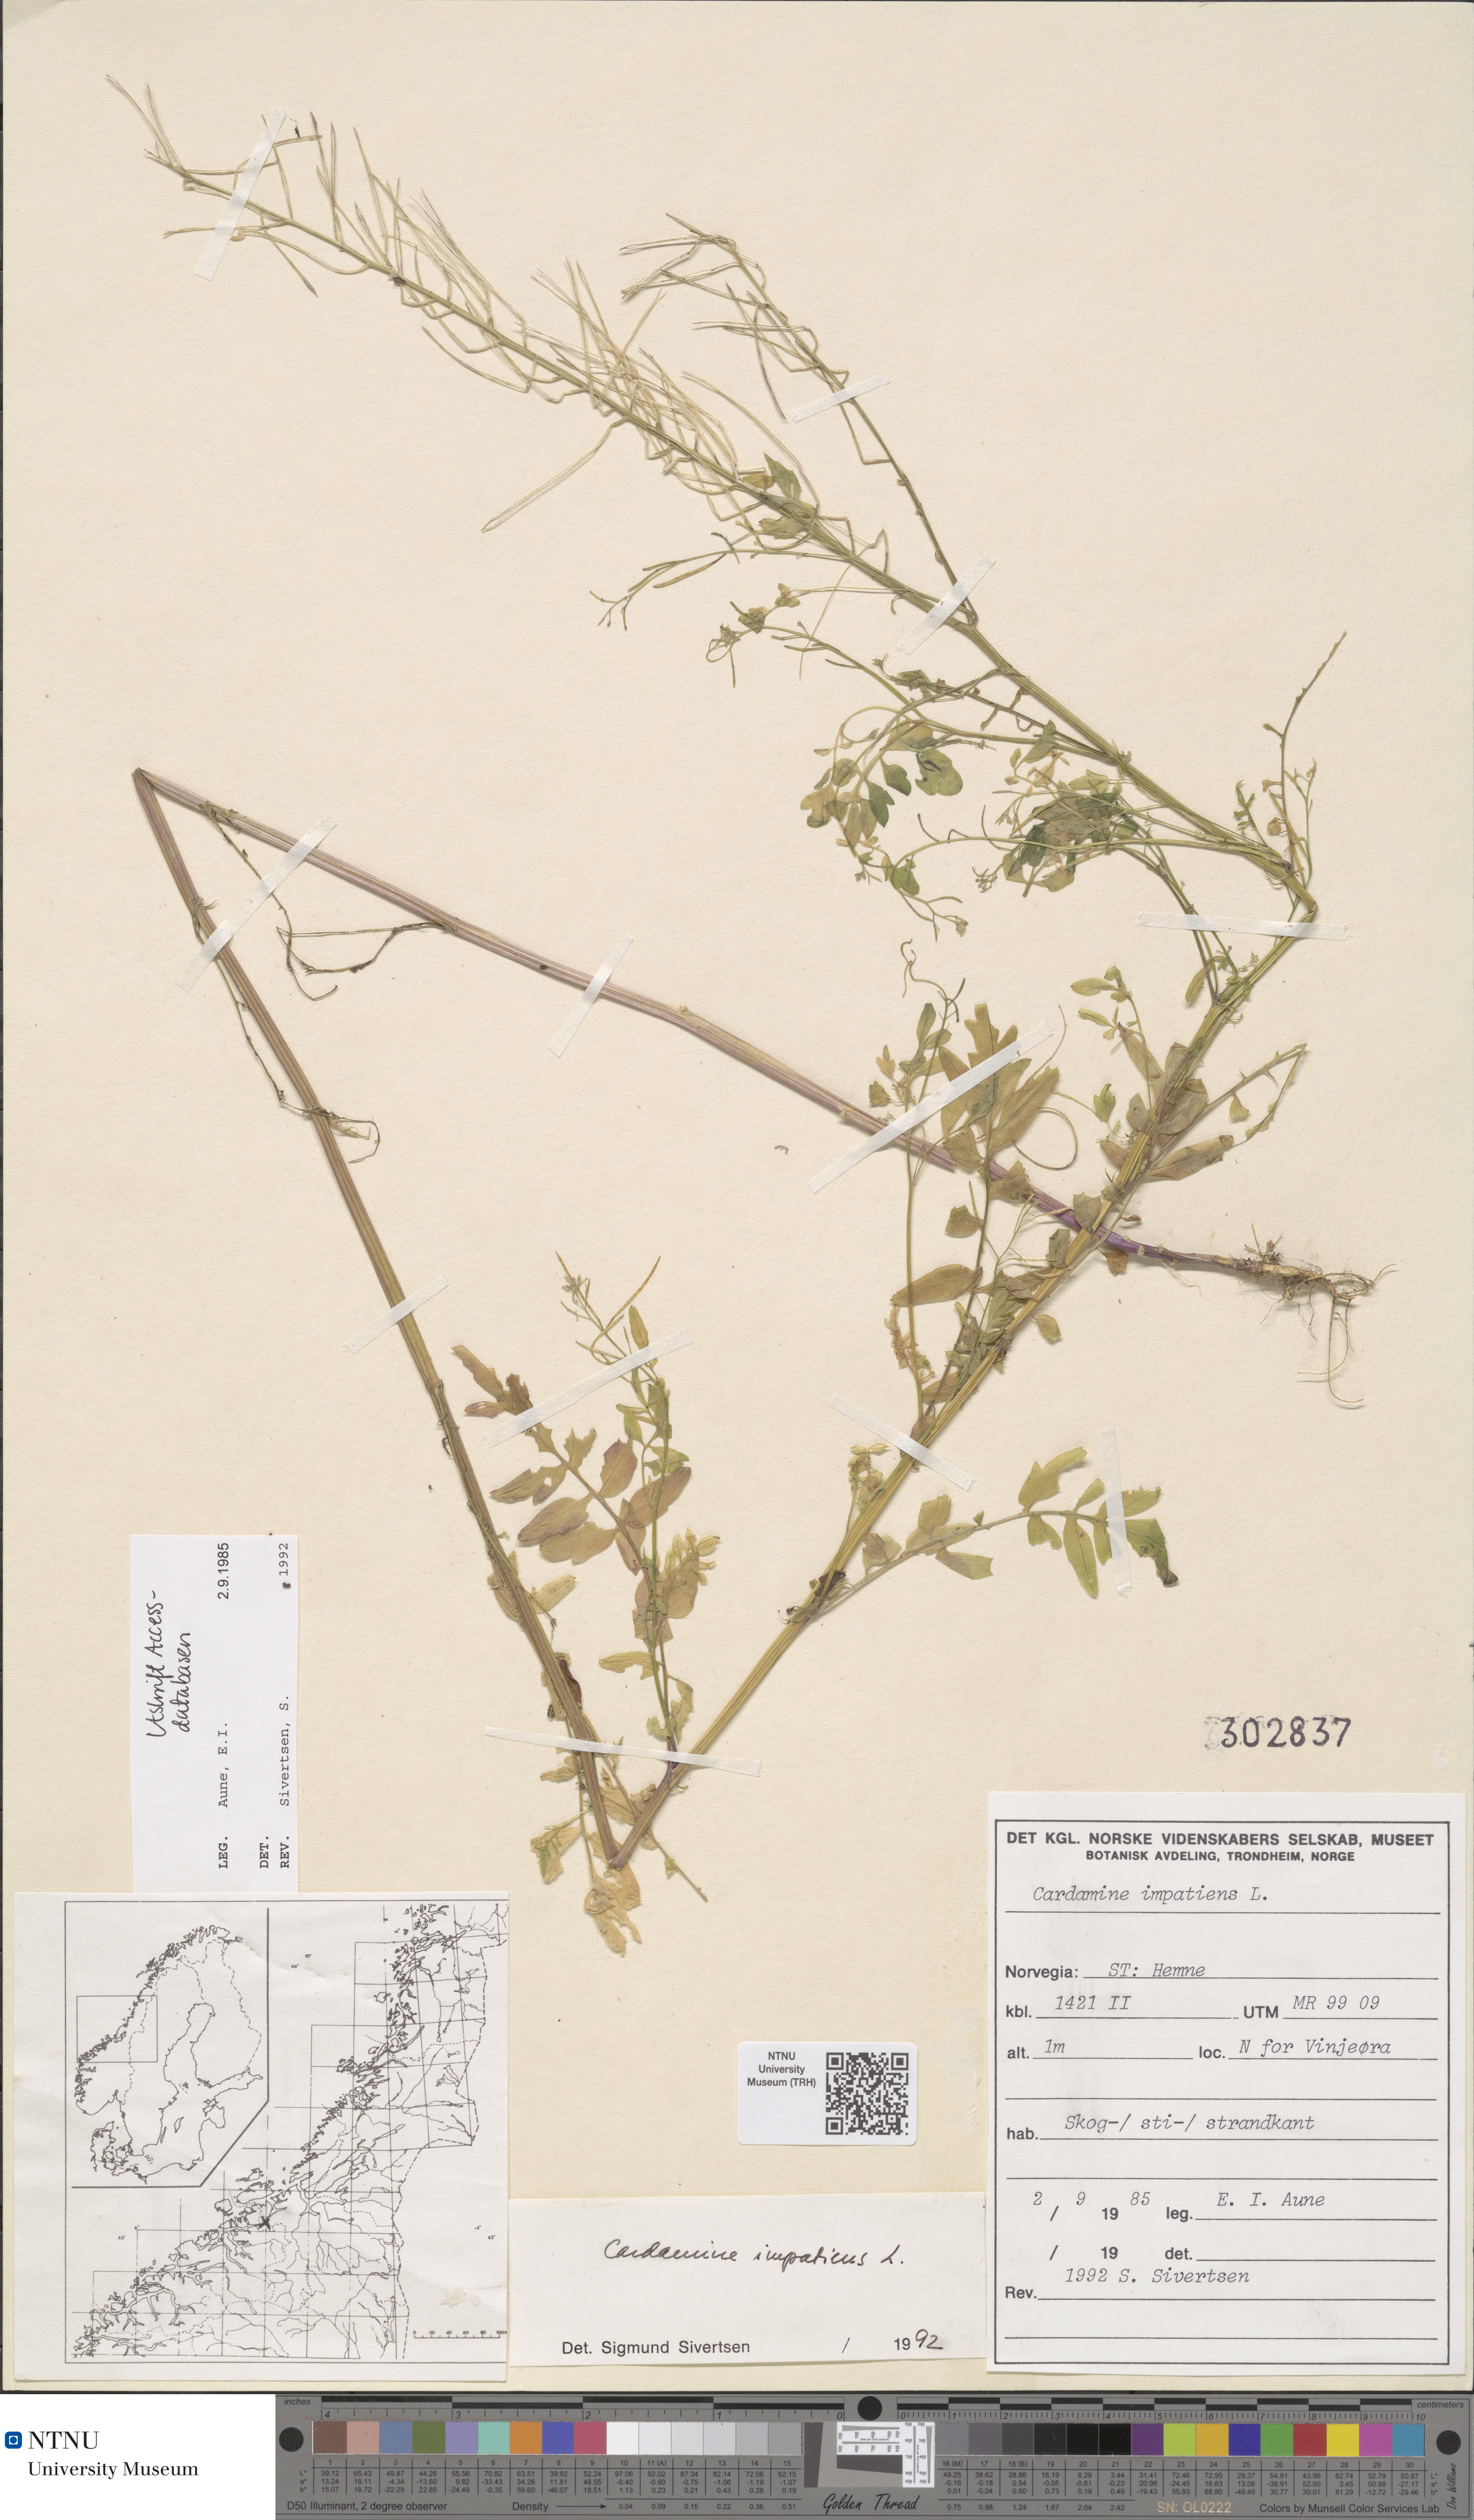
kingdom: Plantae
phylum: Tracheophyta
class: Magnoliopsida
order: Brassicales
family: Brassicaceae
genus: Cardamine
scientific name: Cardamine impatiens
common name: Narrow-leaved bitter-cress
